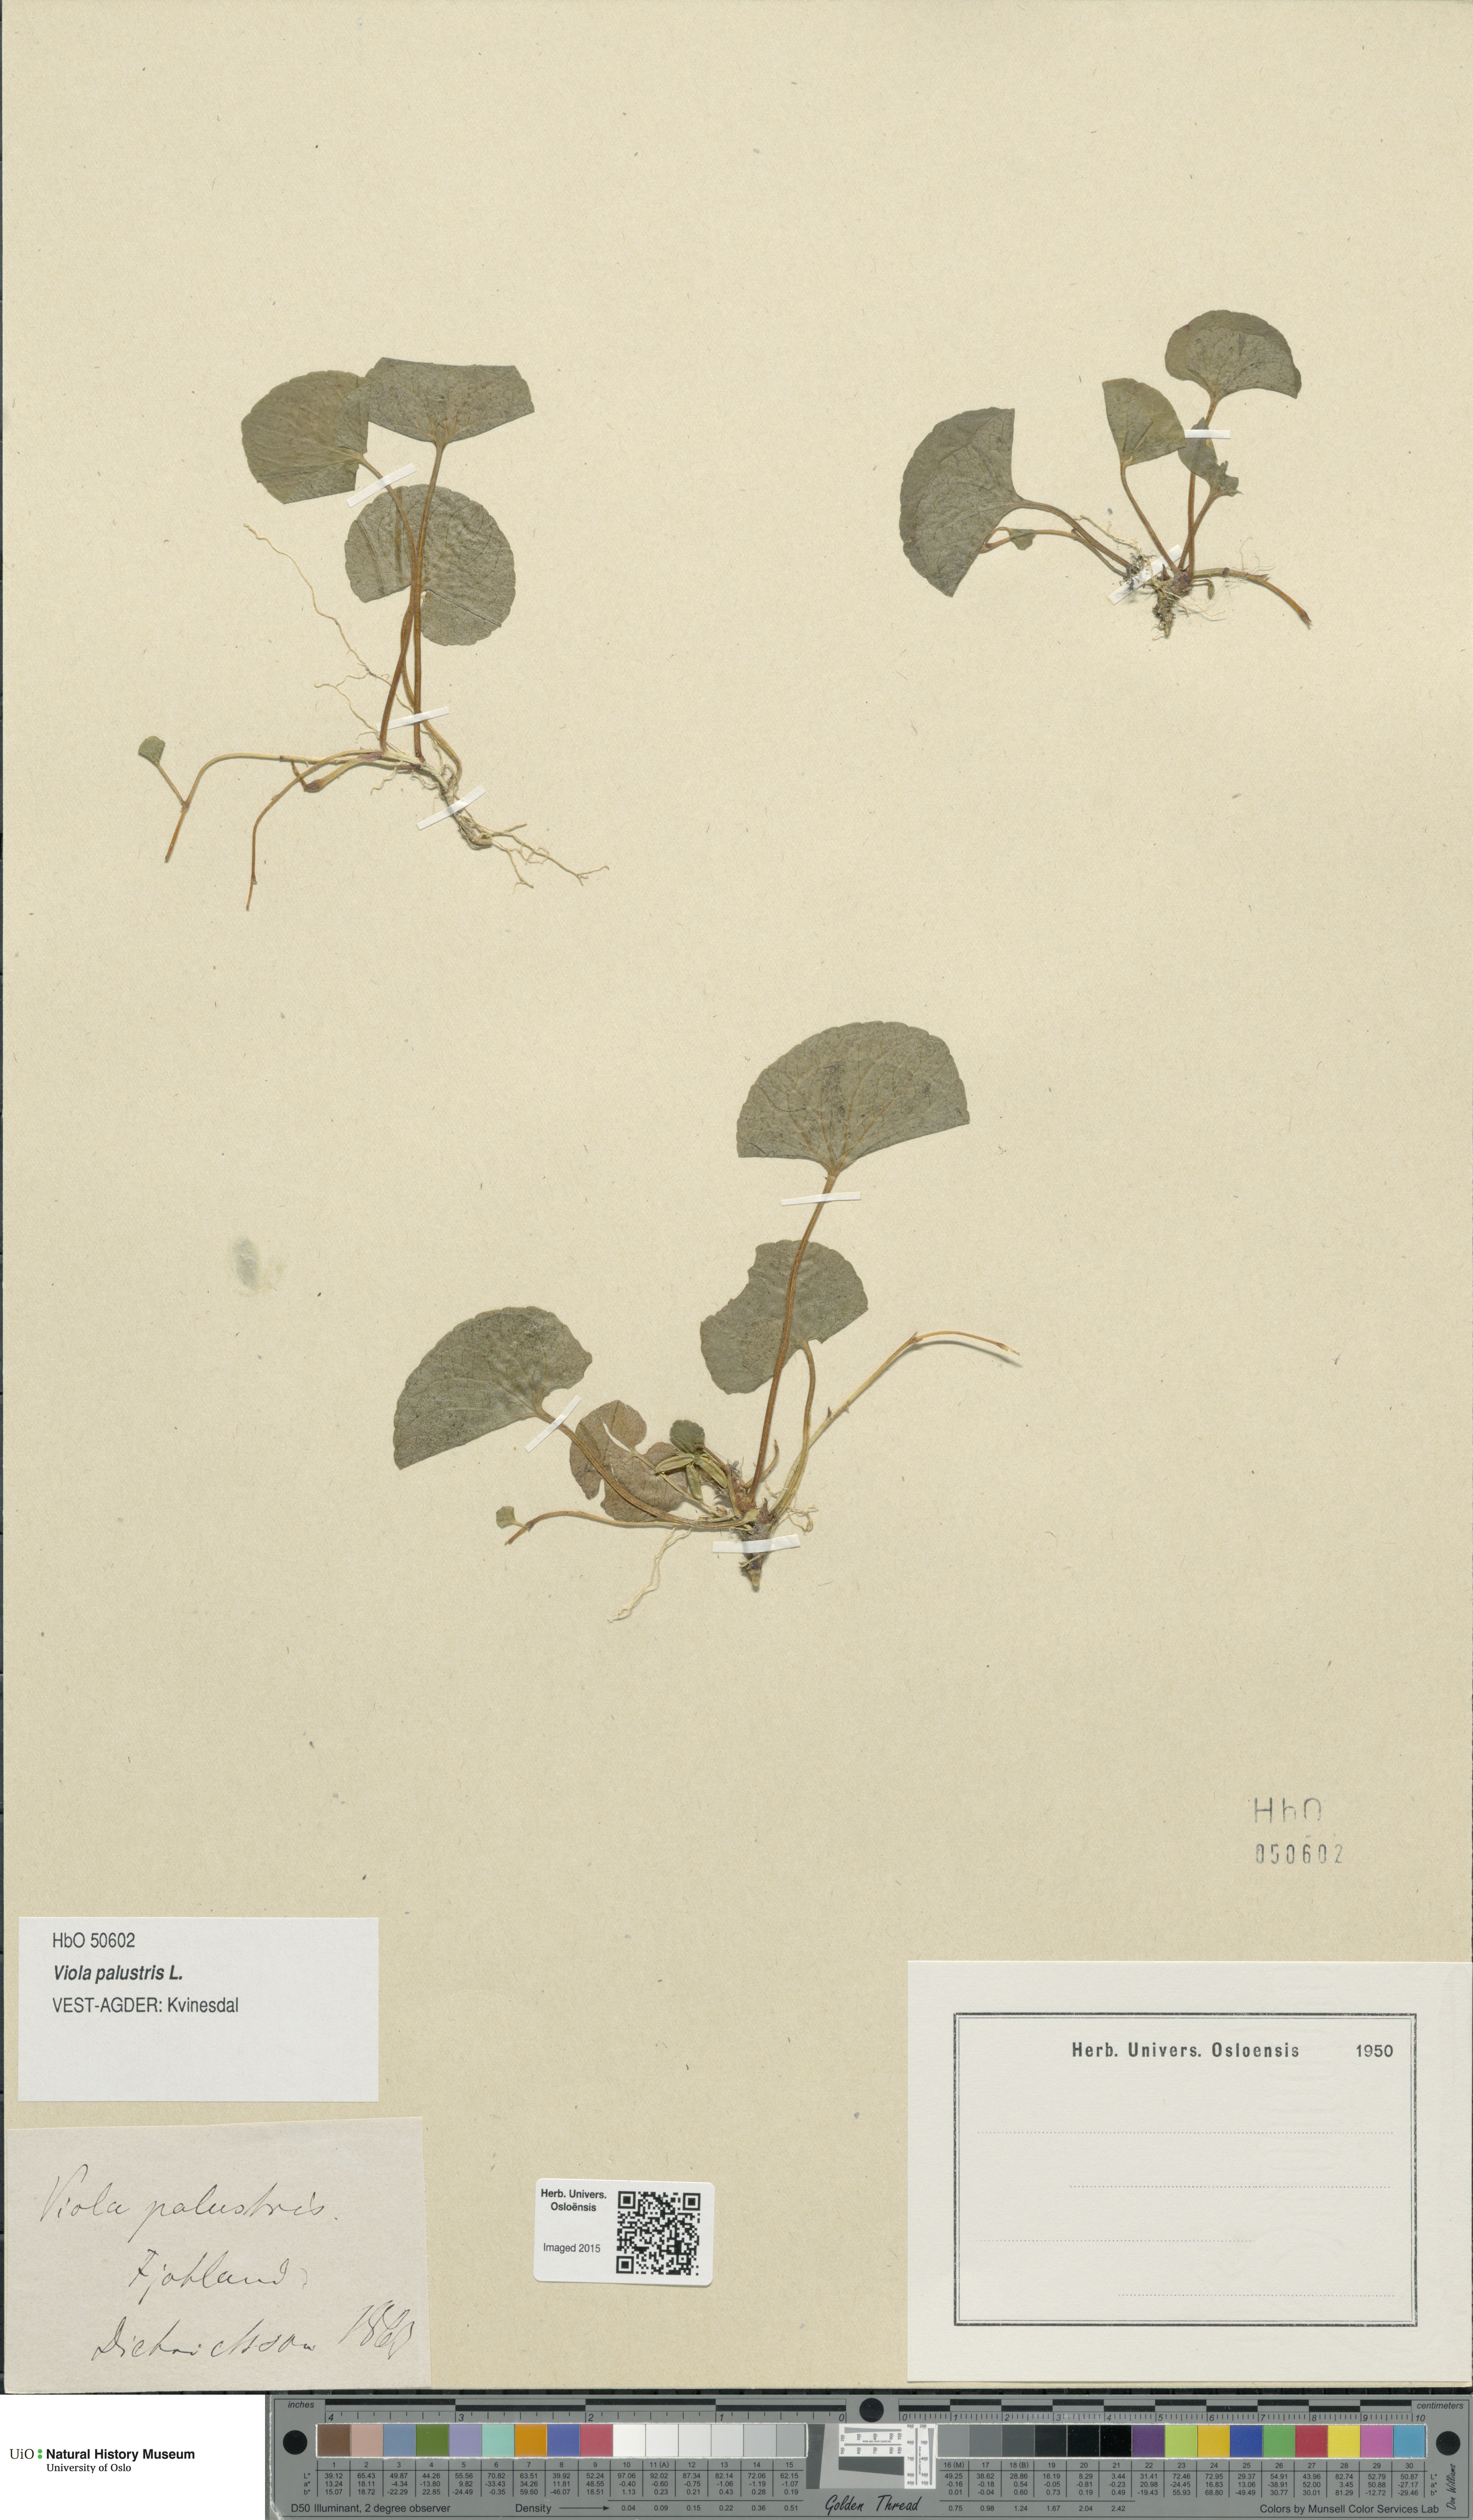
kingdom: Plantae
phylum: Tracheophyta
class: Magnoliopsida
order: Malpighiales
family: Violaceae
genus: Viola
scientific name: Viola palustris
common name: Marsh violet
